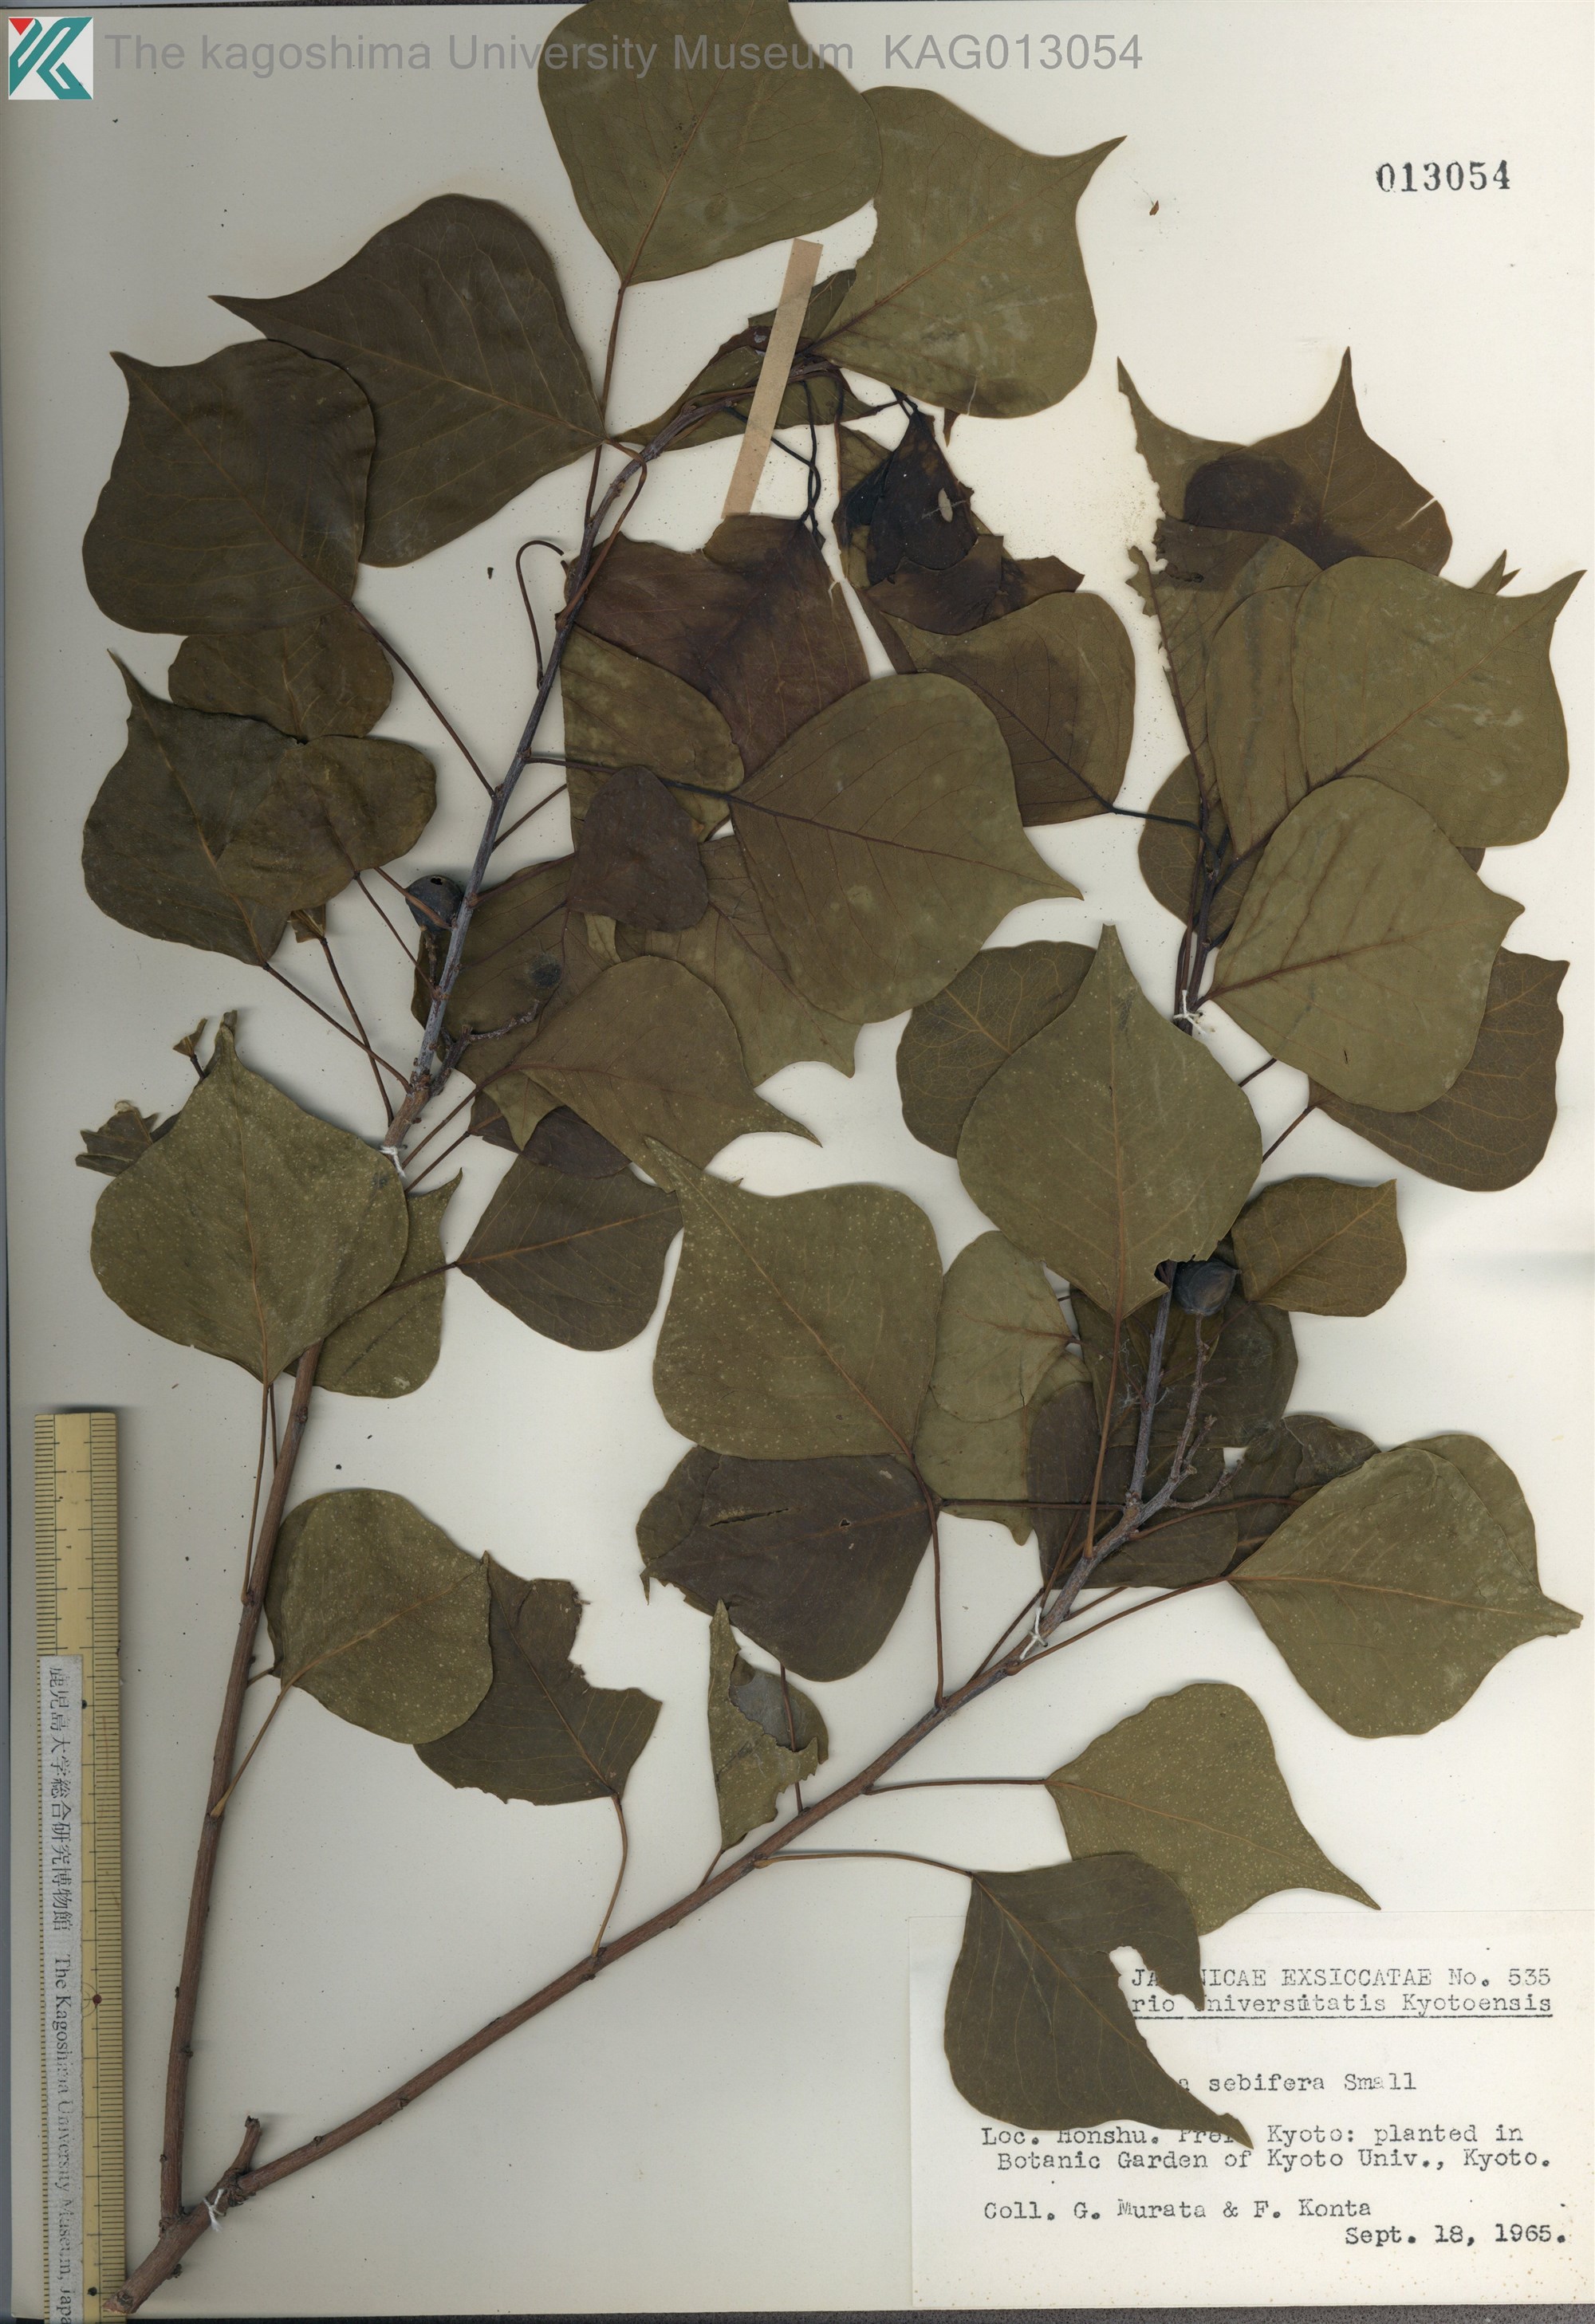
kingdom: Plantae
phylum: Tracheophyta
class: Magnoliopsida
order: Malpighiales
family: Euphorbiaceae
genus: Triadica
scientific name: Triadica sebifera
